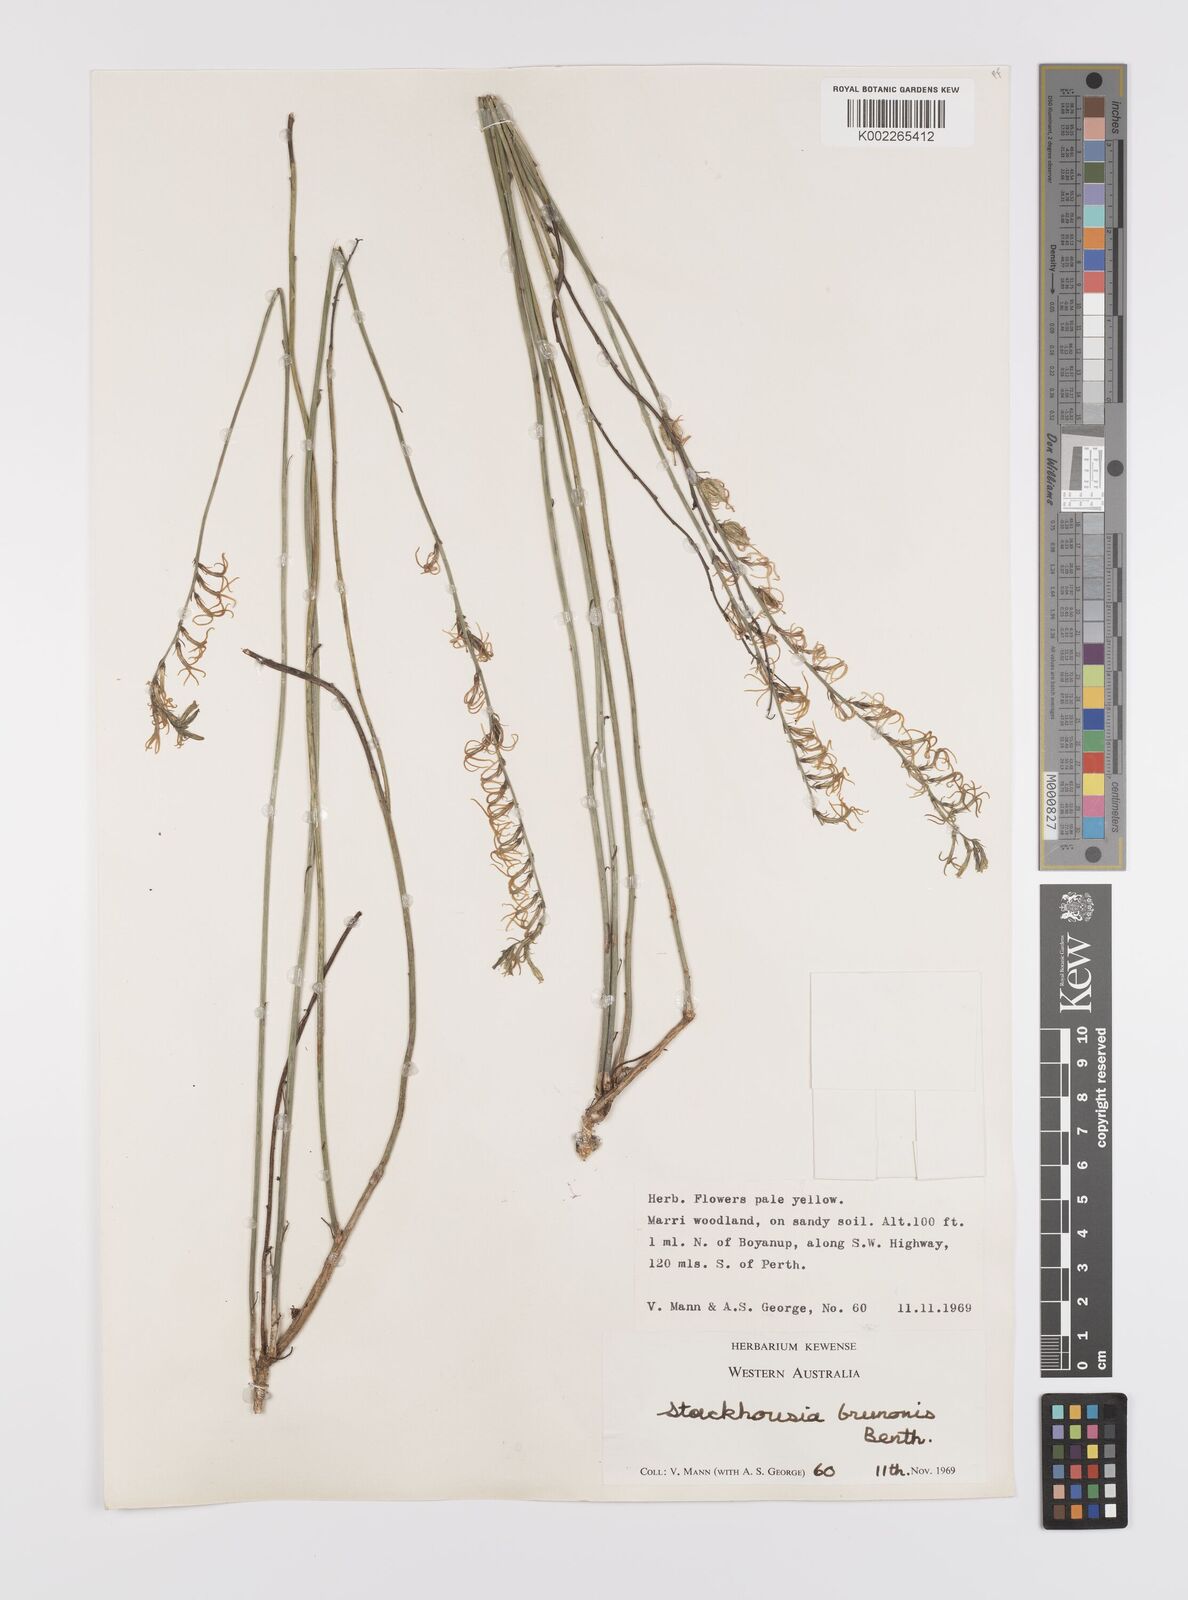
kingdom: Plantae
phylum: Tracheophyta
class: Magnoliopsida
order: Celastrales
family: Celastraceae
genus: Tripterococcus
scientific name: Tripterococcus brunonis
